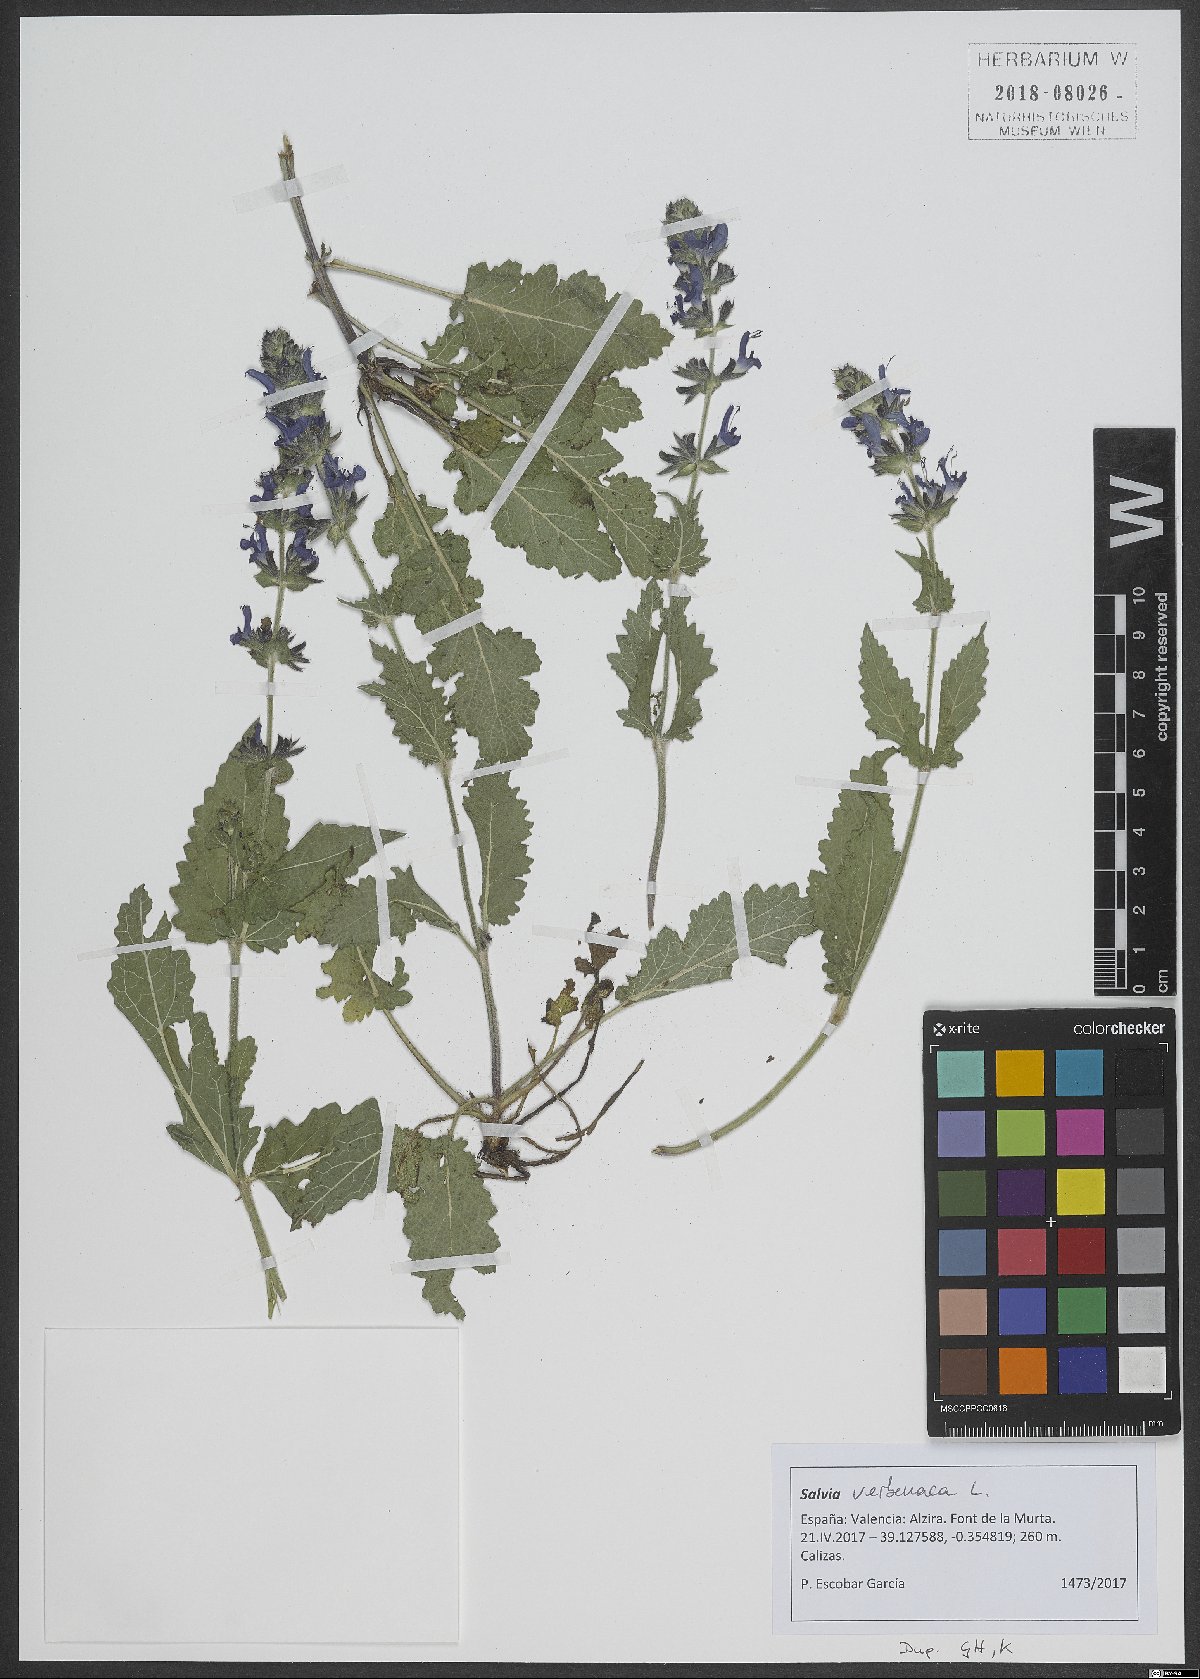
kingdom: Plantae
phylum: Tracheophyta
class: Magnoliopsida
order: Lamiales
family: Lamiaceae
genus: Salvia
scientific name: Salvia verbenaca
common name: Wild clary
